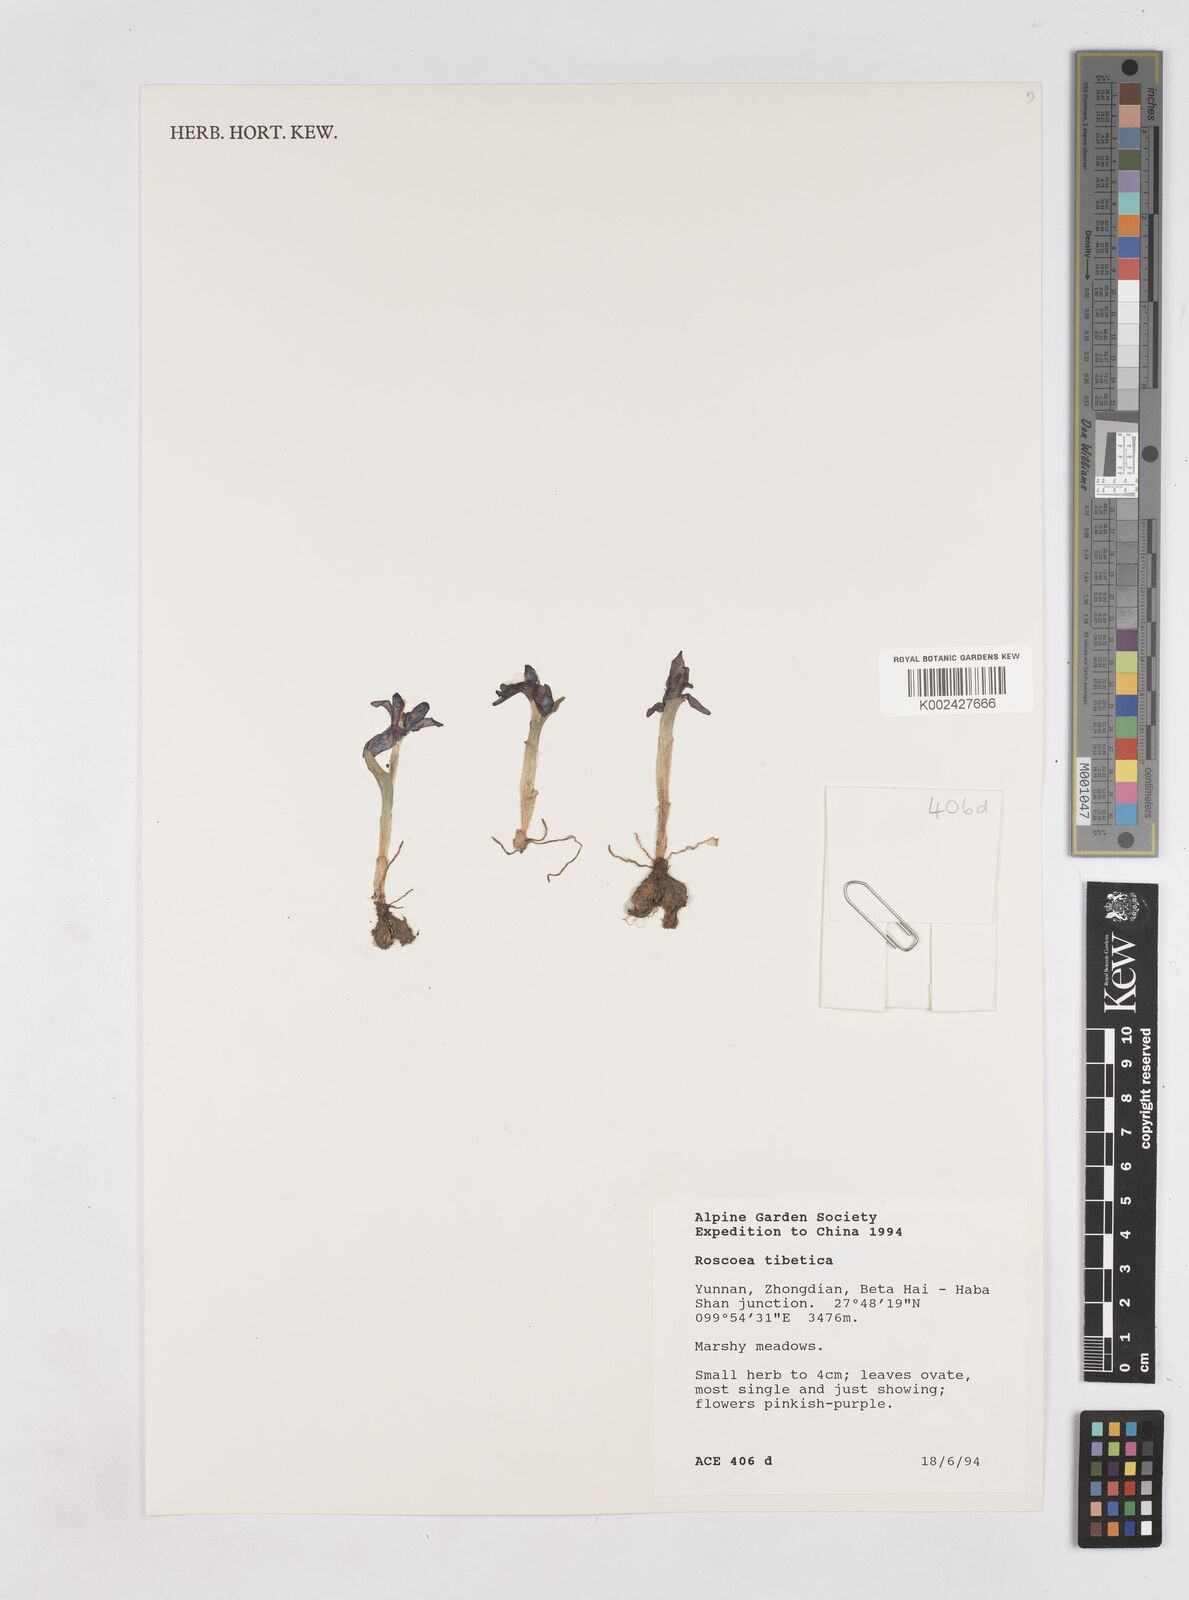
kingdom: Plantae
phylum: Tracheophyta
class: Liliopsida
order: Zingiberales
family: Zingiberaceae
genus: Roscoea
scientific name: Roscoea tibetica
